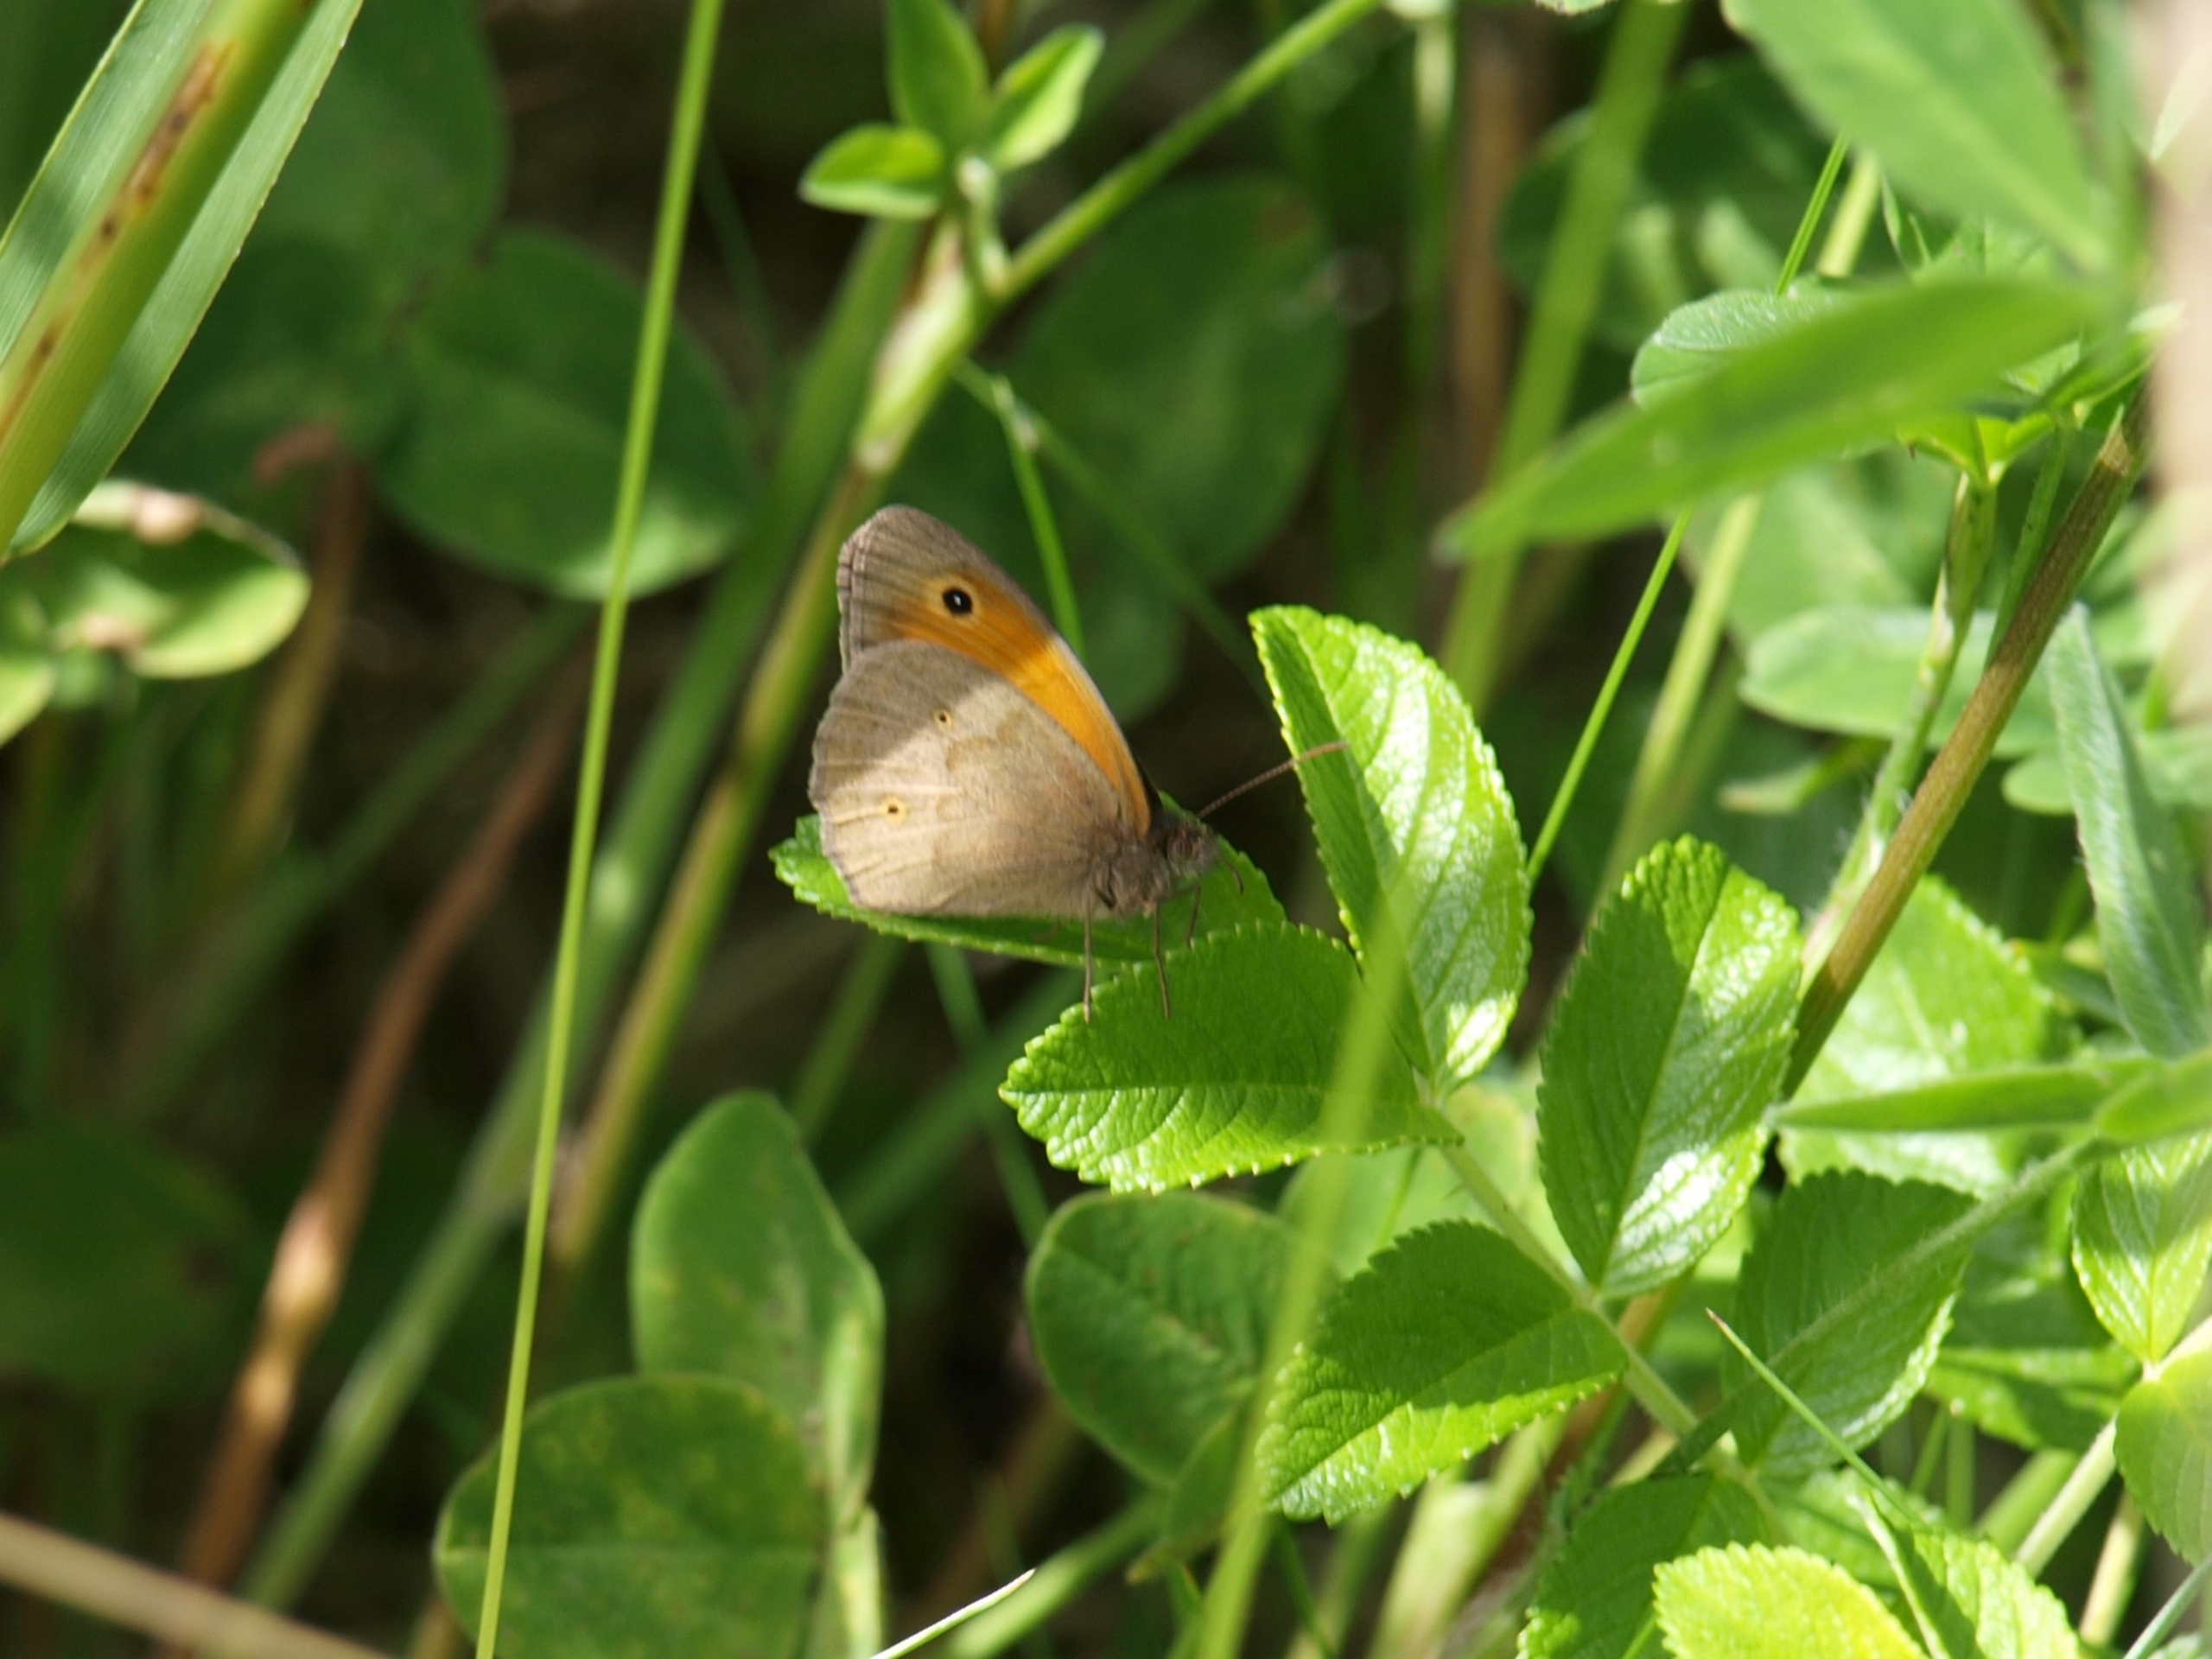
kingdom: Animalia
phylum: Arthropoda
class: Insecta
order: Lepidoptera
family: Nymphalidae
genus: Maniola
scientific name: Maniola jurtina
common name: Græsrandøje
